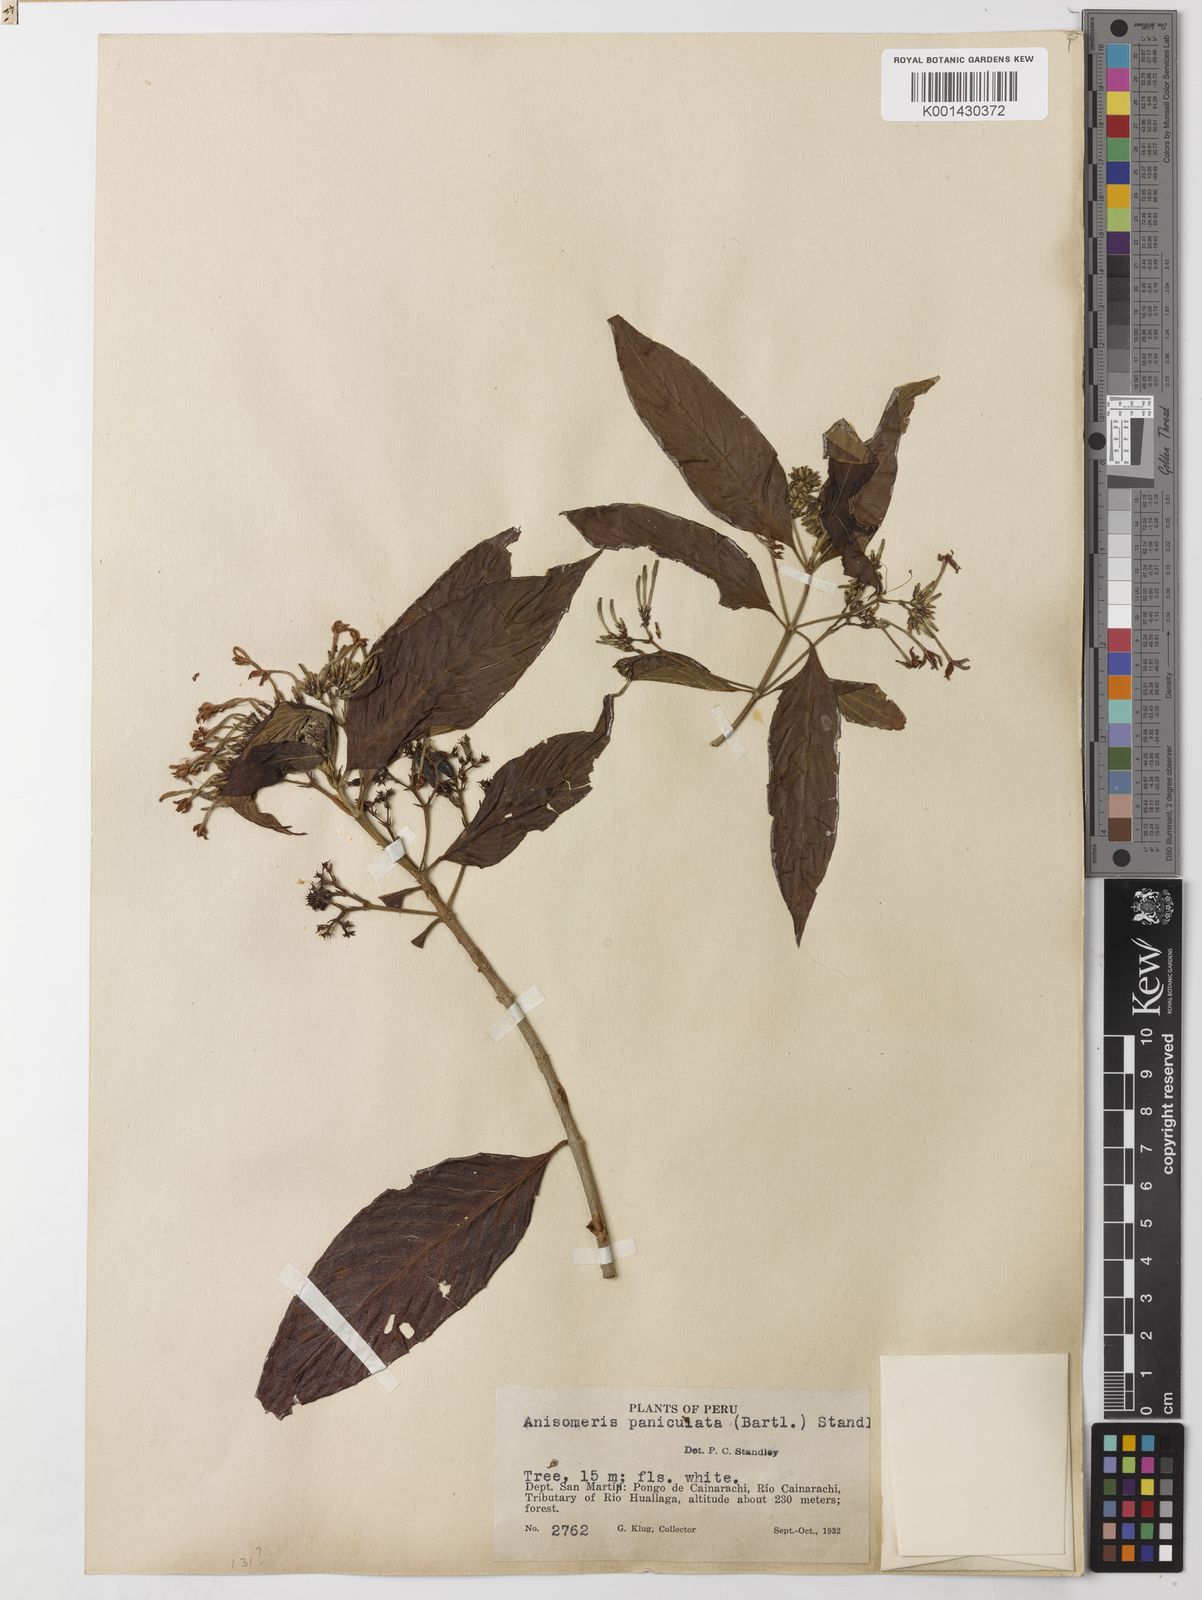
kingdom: Plantae
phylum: Tracheophyta
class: Magnoliopsida
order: Gentianales
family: Rubiaceae
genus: Chomelia
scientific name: Chomelia paniculata
